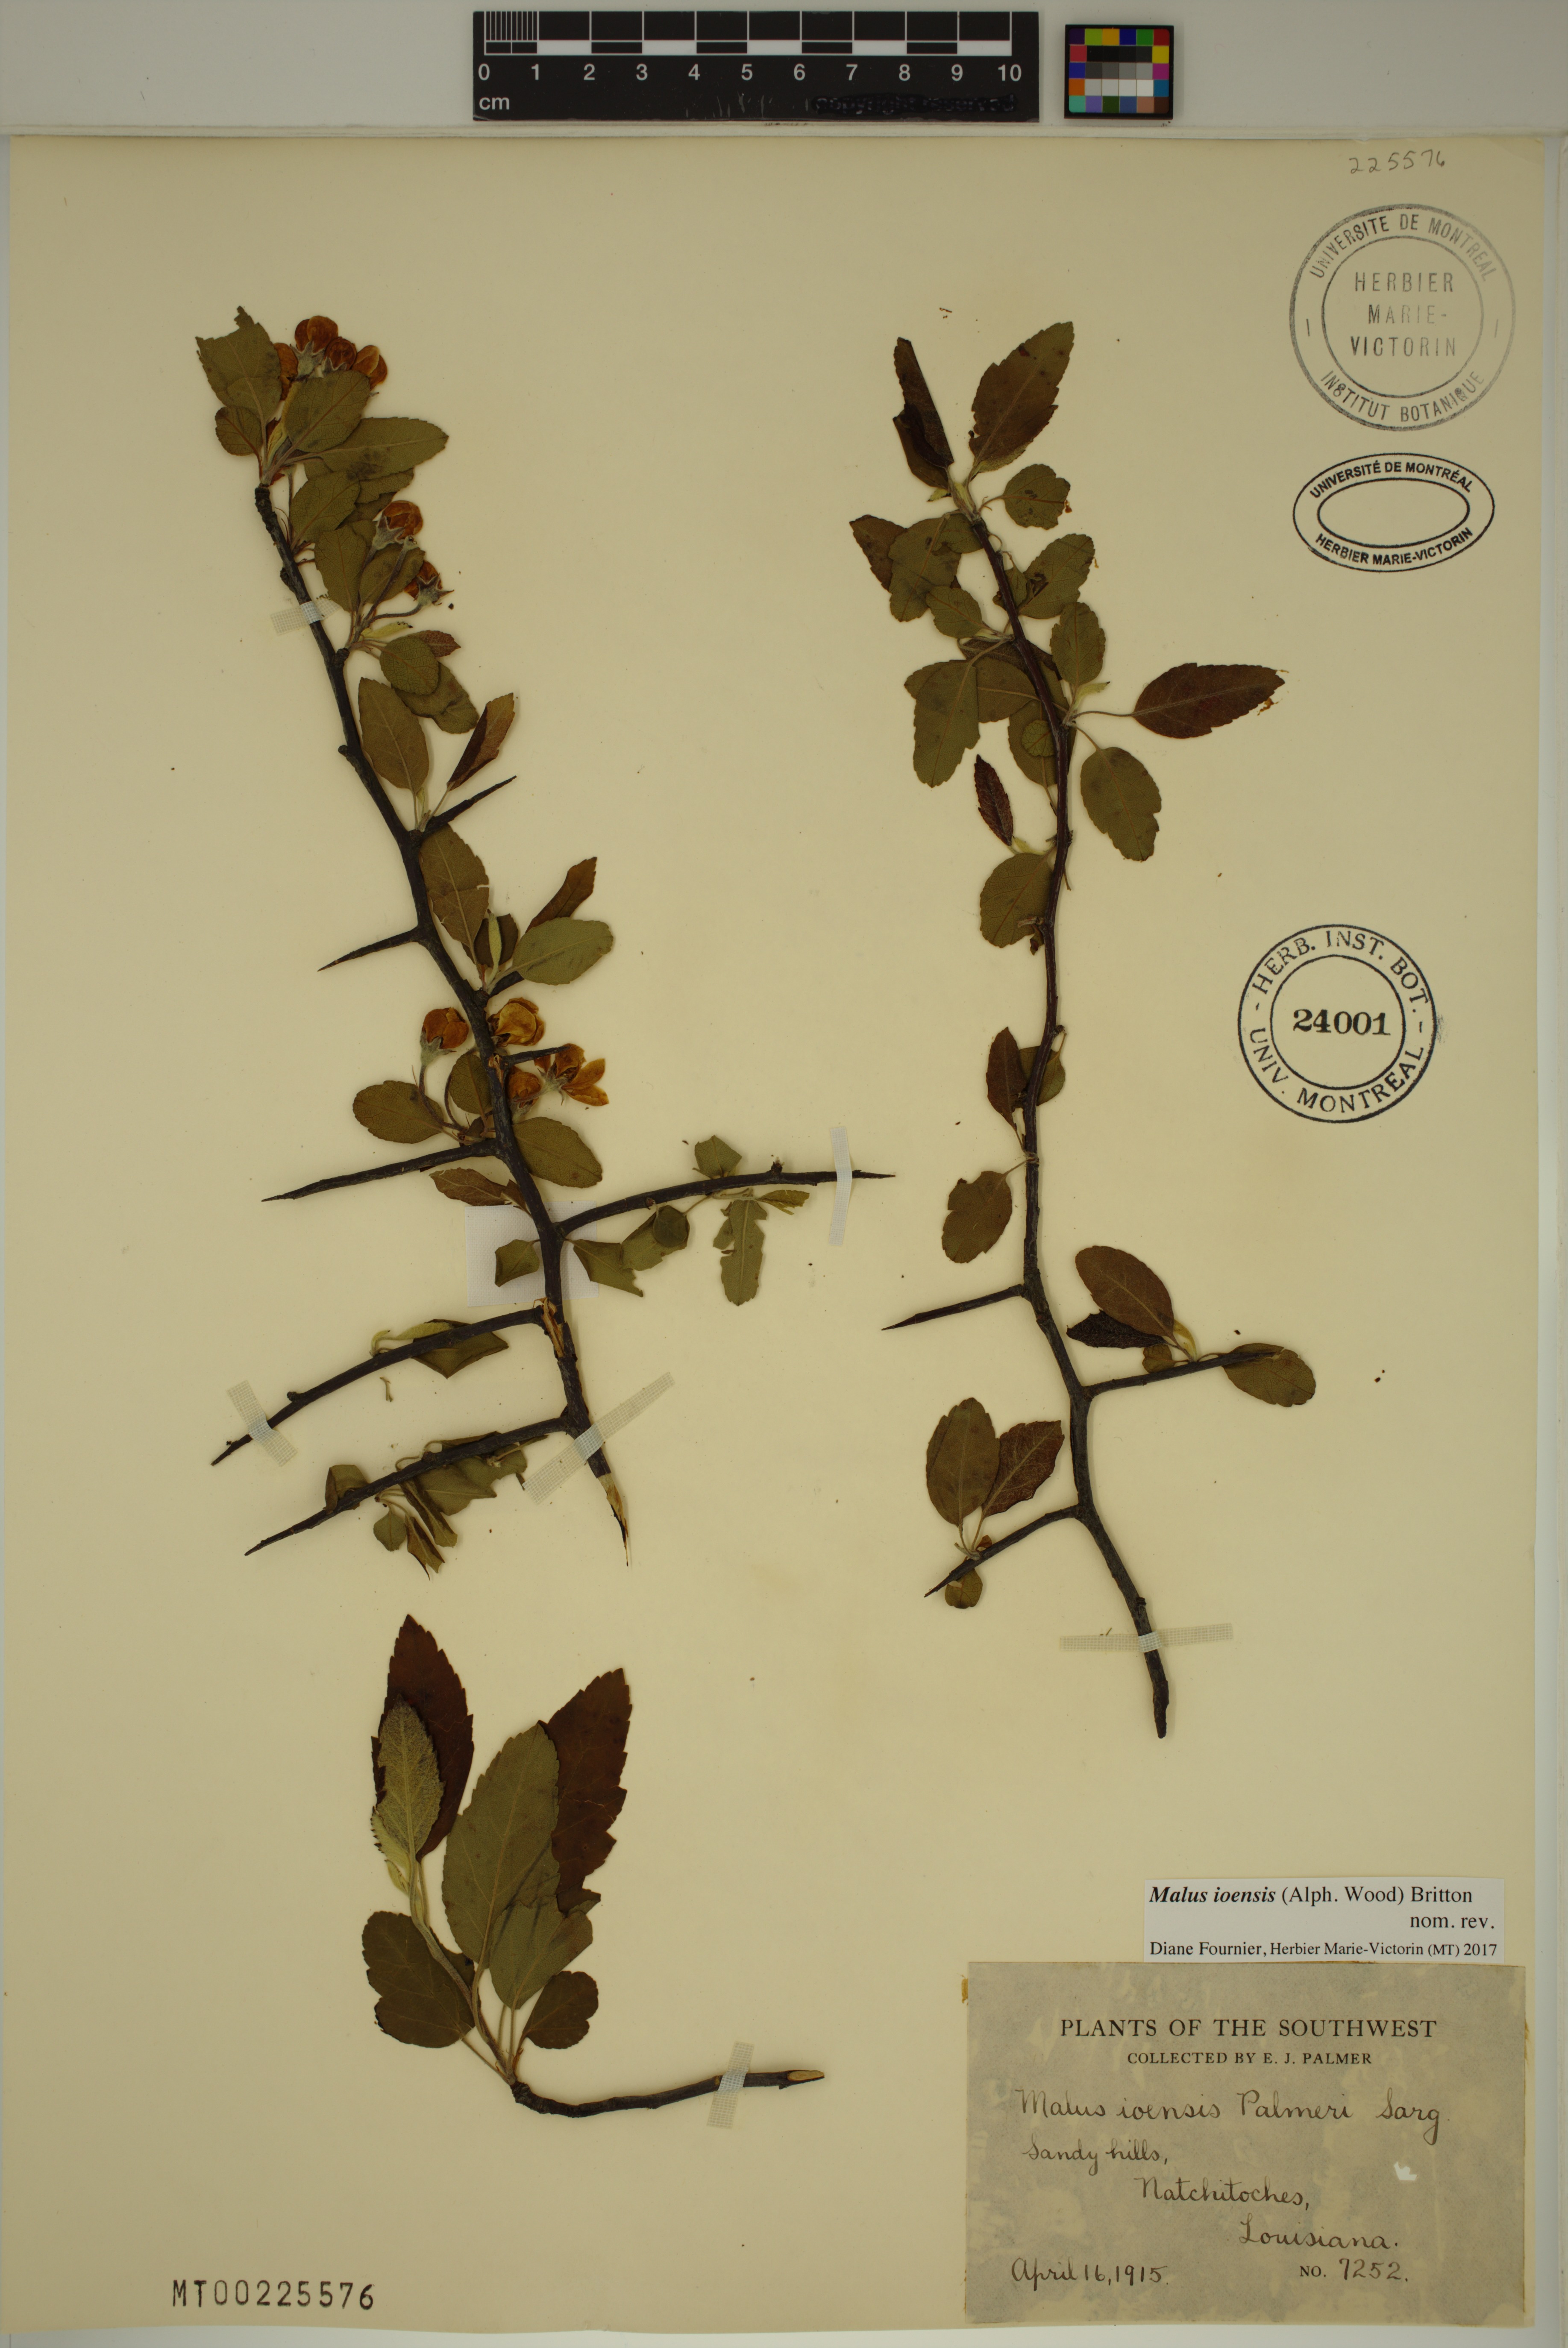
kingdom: Plantae
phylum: Tracheophyta
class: Magnoliopsida
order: Rosales
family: Rosaceae
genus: Malus
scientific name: Malus ioensis
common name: Iowa crab apple
